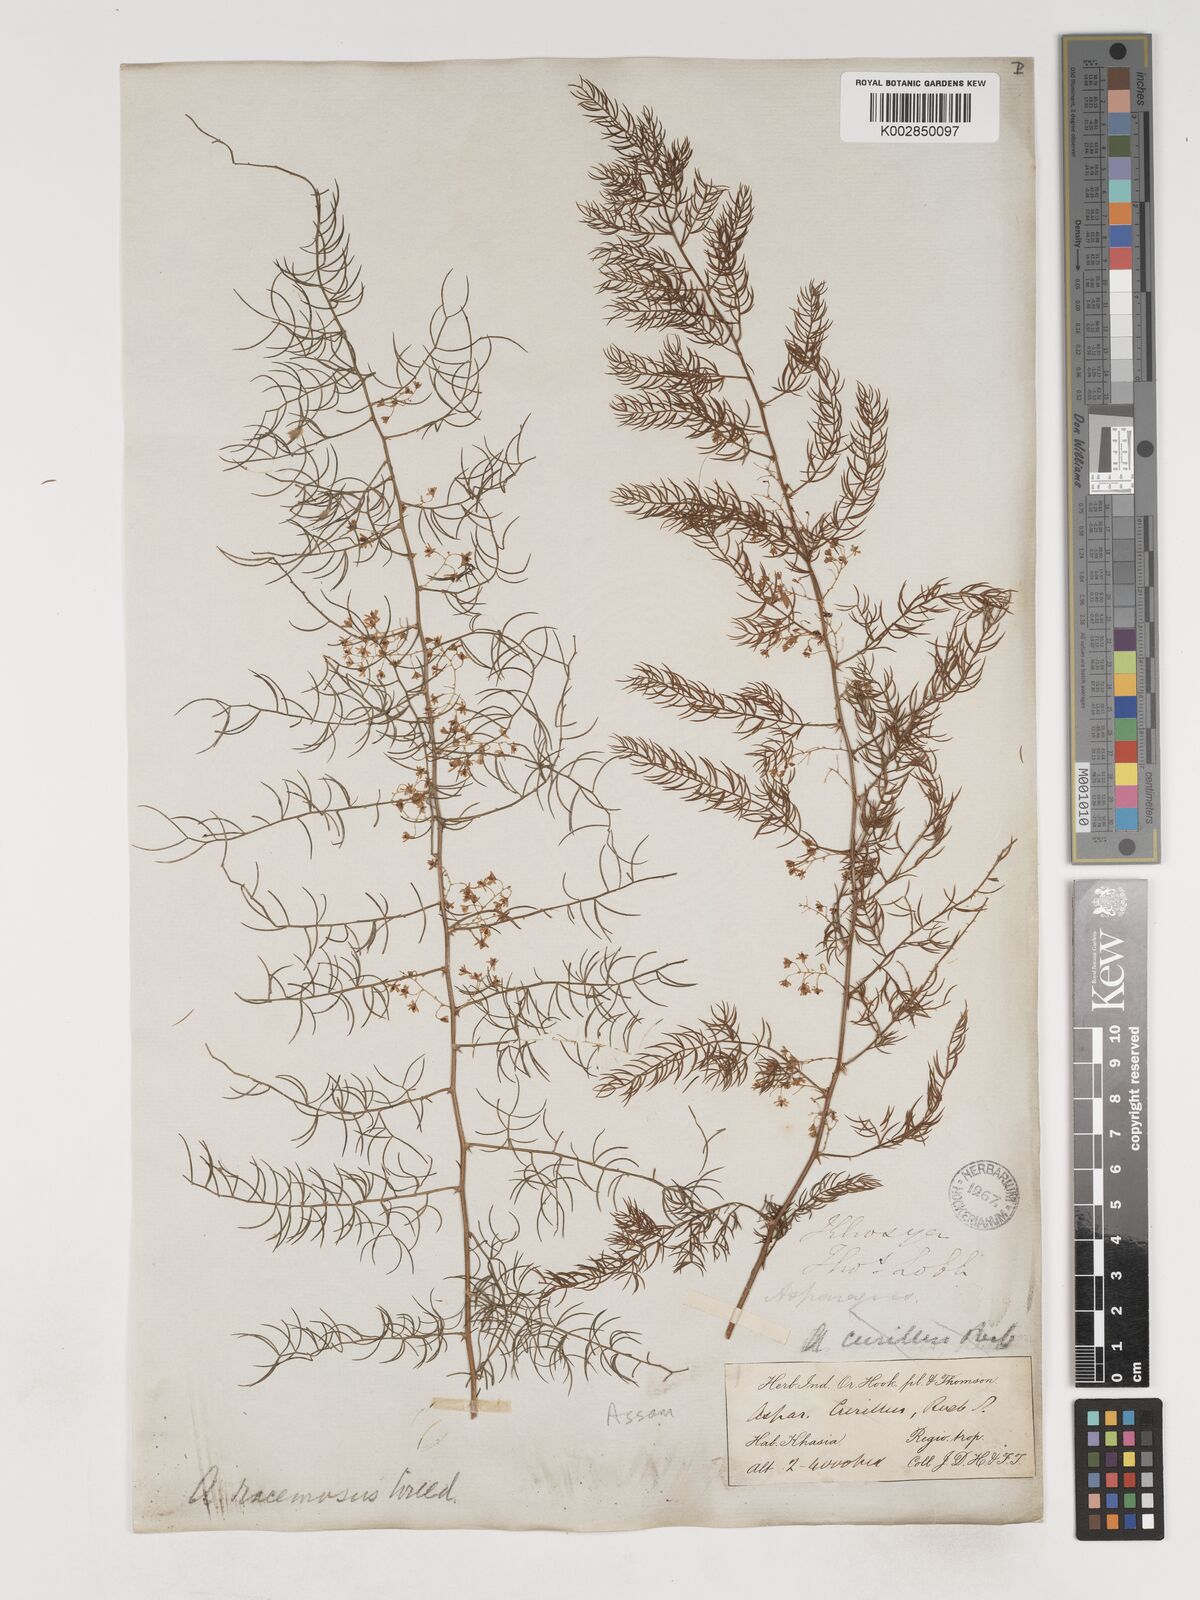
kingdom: Plantae
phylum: Tracheophyta
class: Liliopsida
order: Asparagales
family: Asparagaceae
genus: Asparagus
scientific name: Asparagus racemosus
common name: Asparagus-fern
